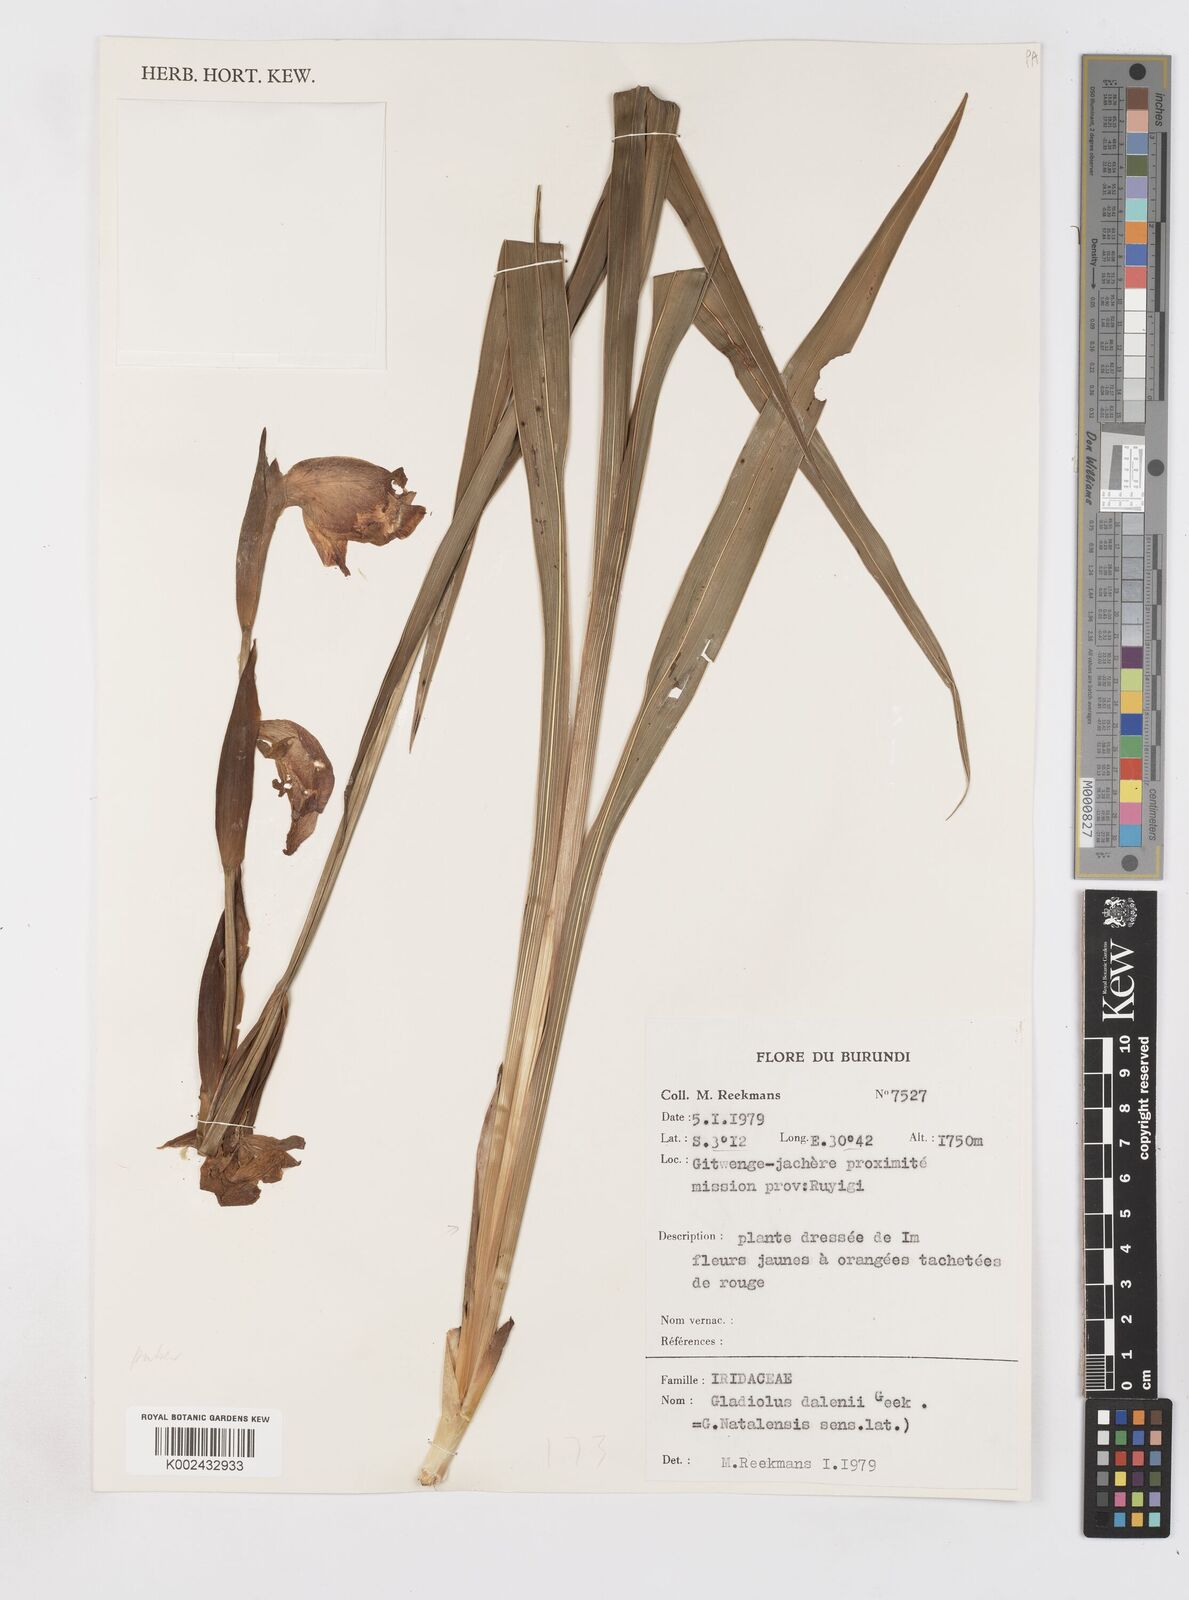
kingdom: Plantae
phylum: Tracheophyta
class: Liliopsida
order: Asparagales
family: Iridaceae
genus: Gladiolus
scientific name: Gladiolus dalenii
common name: Cornflag
